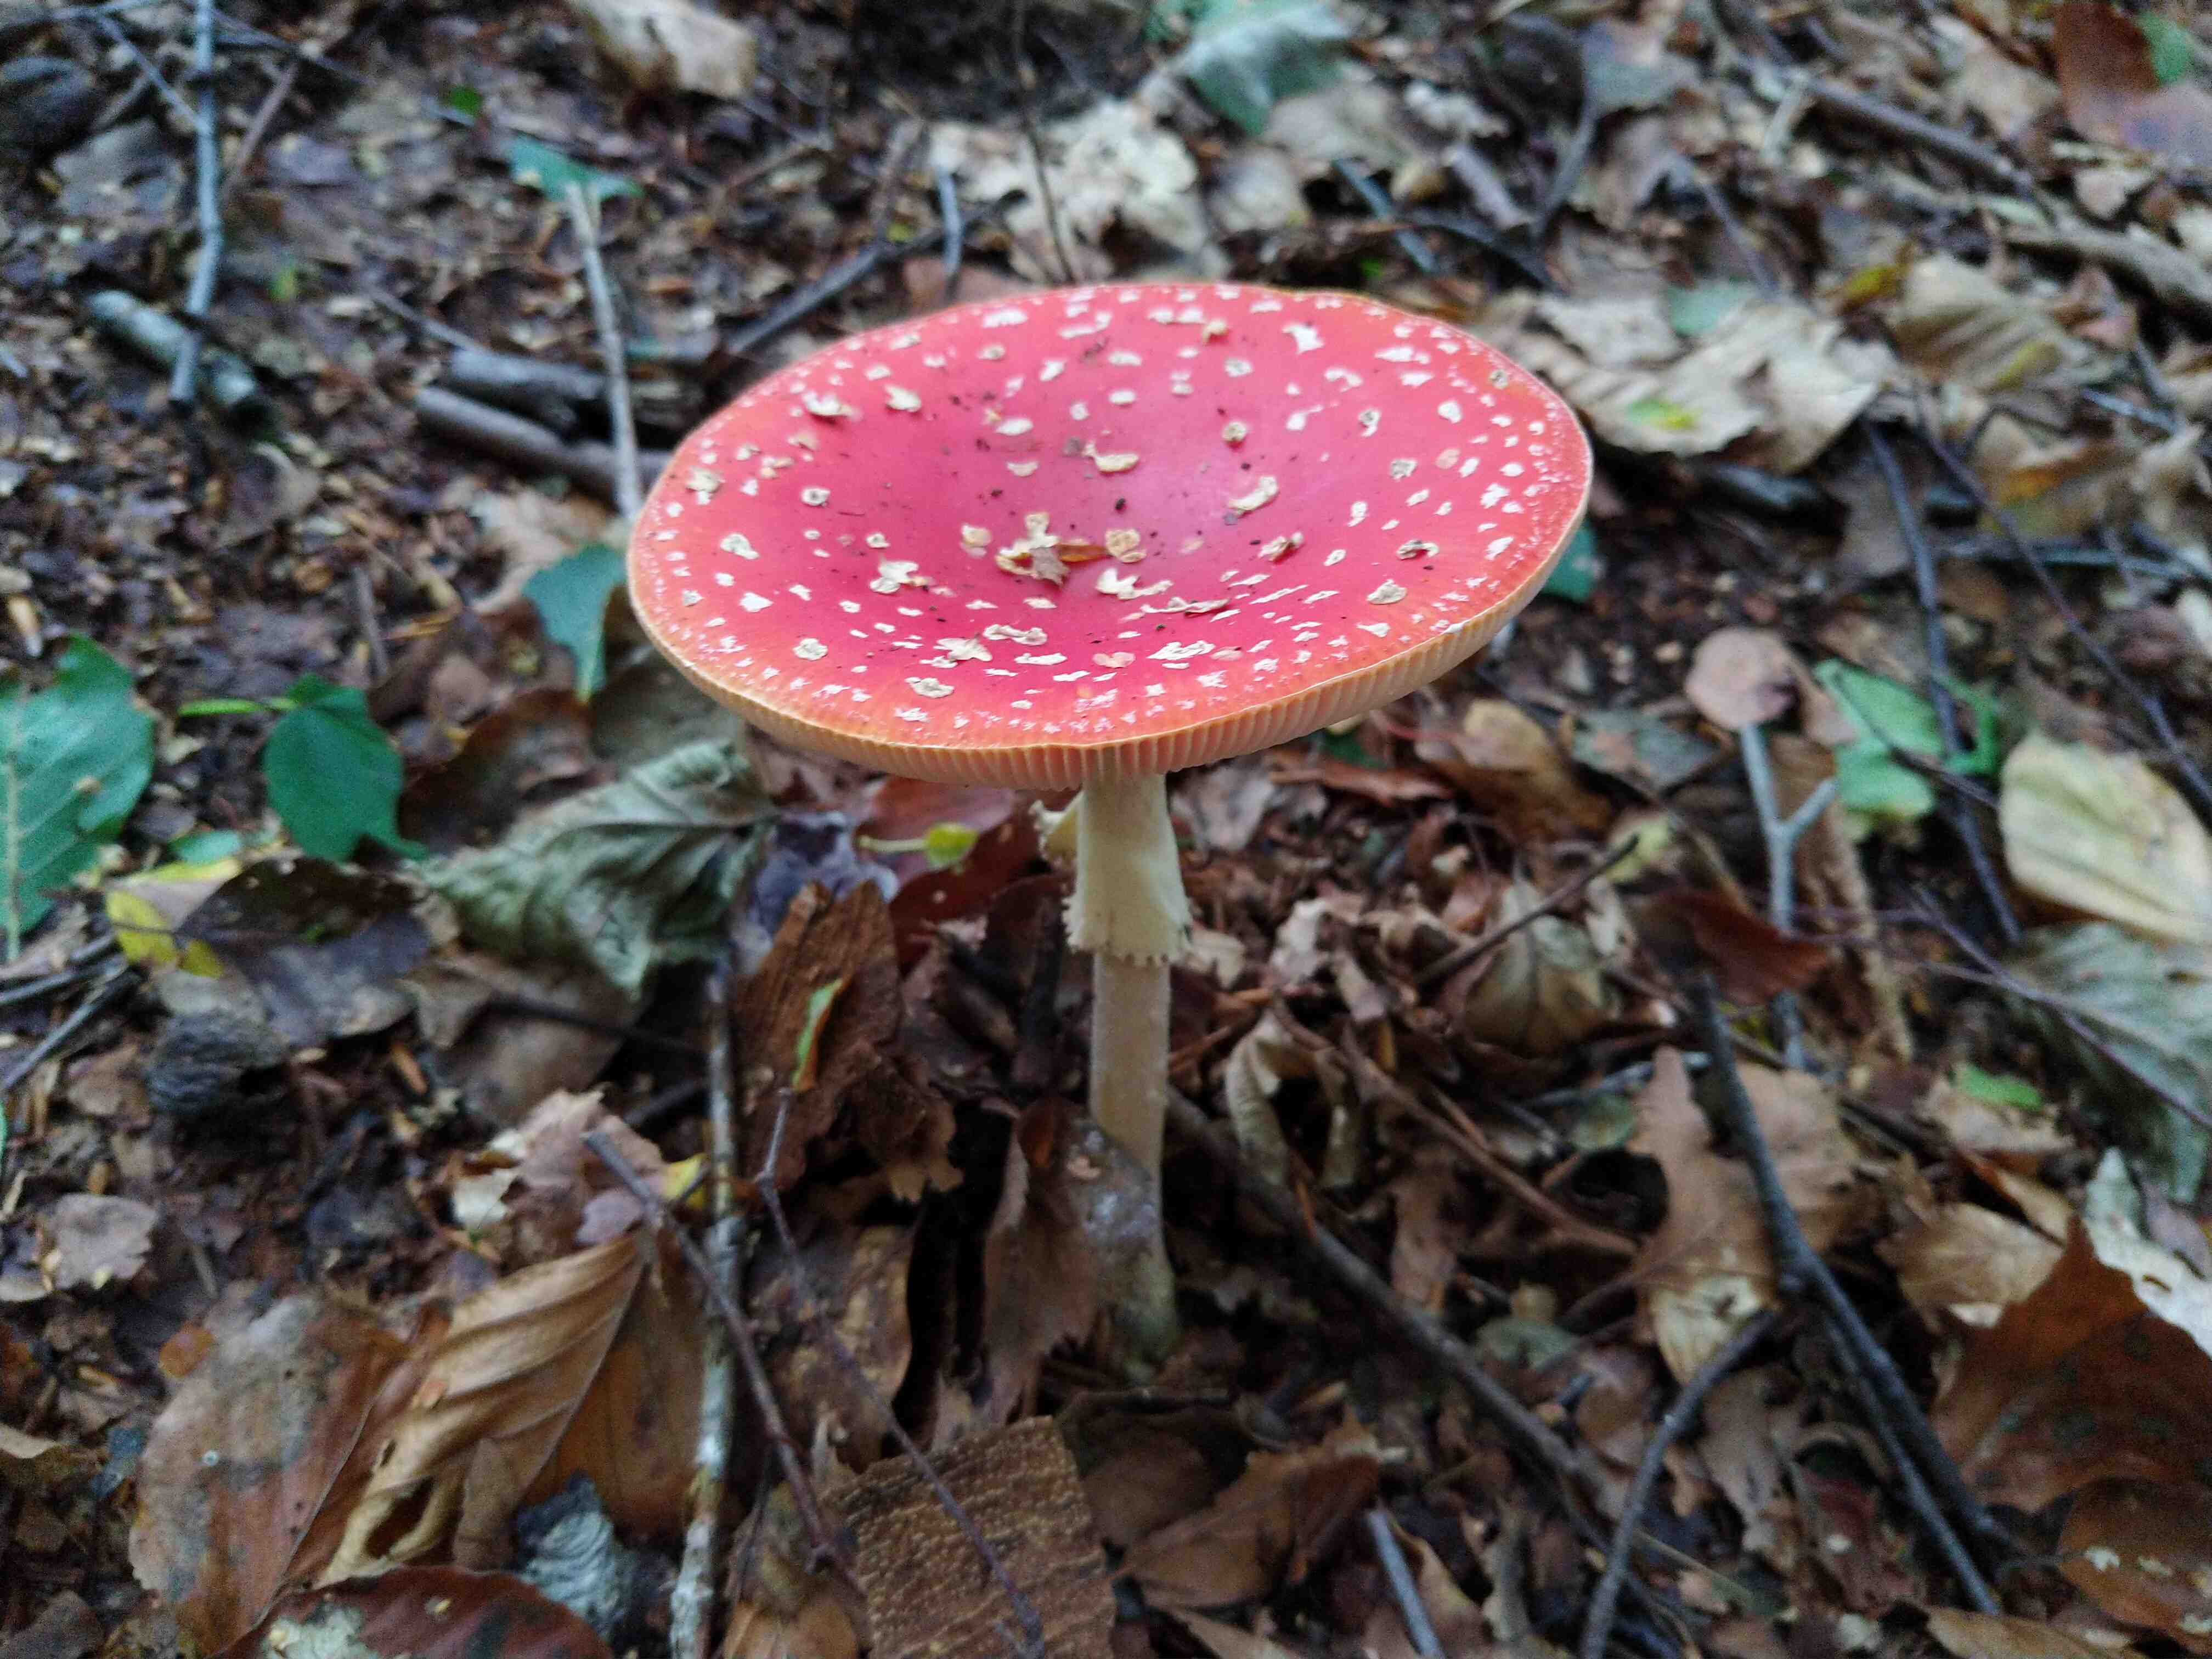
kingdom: Fungi
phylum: Basidiomycota
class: Agaricomycetes
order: Agaricales
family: Amanitaceae
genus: Amanita
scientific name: Amanita muscaria
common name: rød fluesvamp
